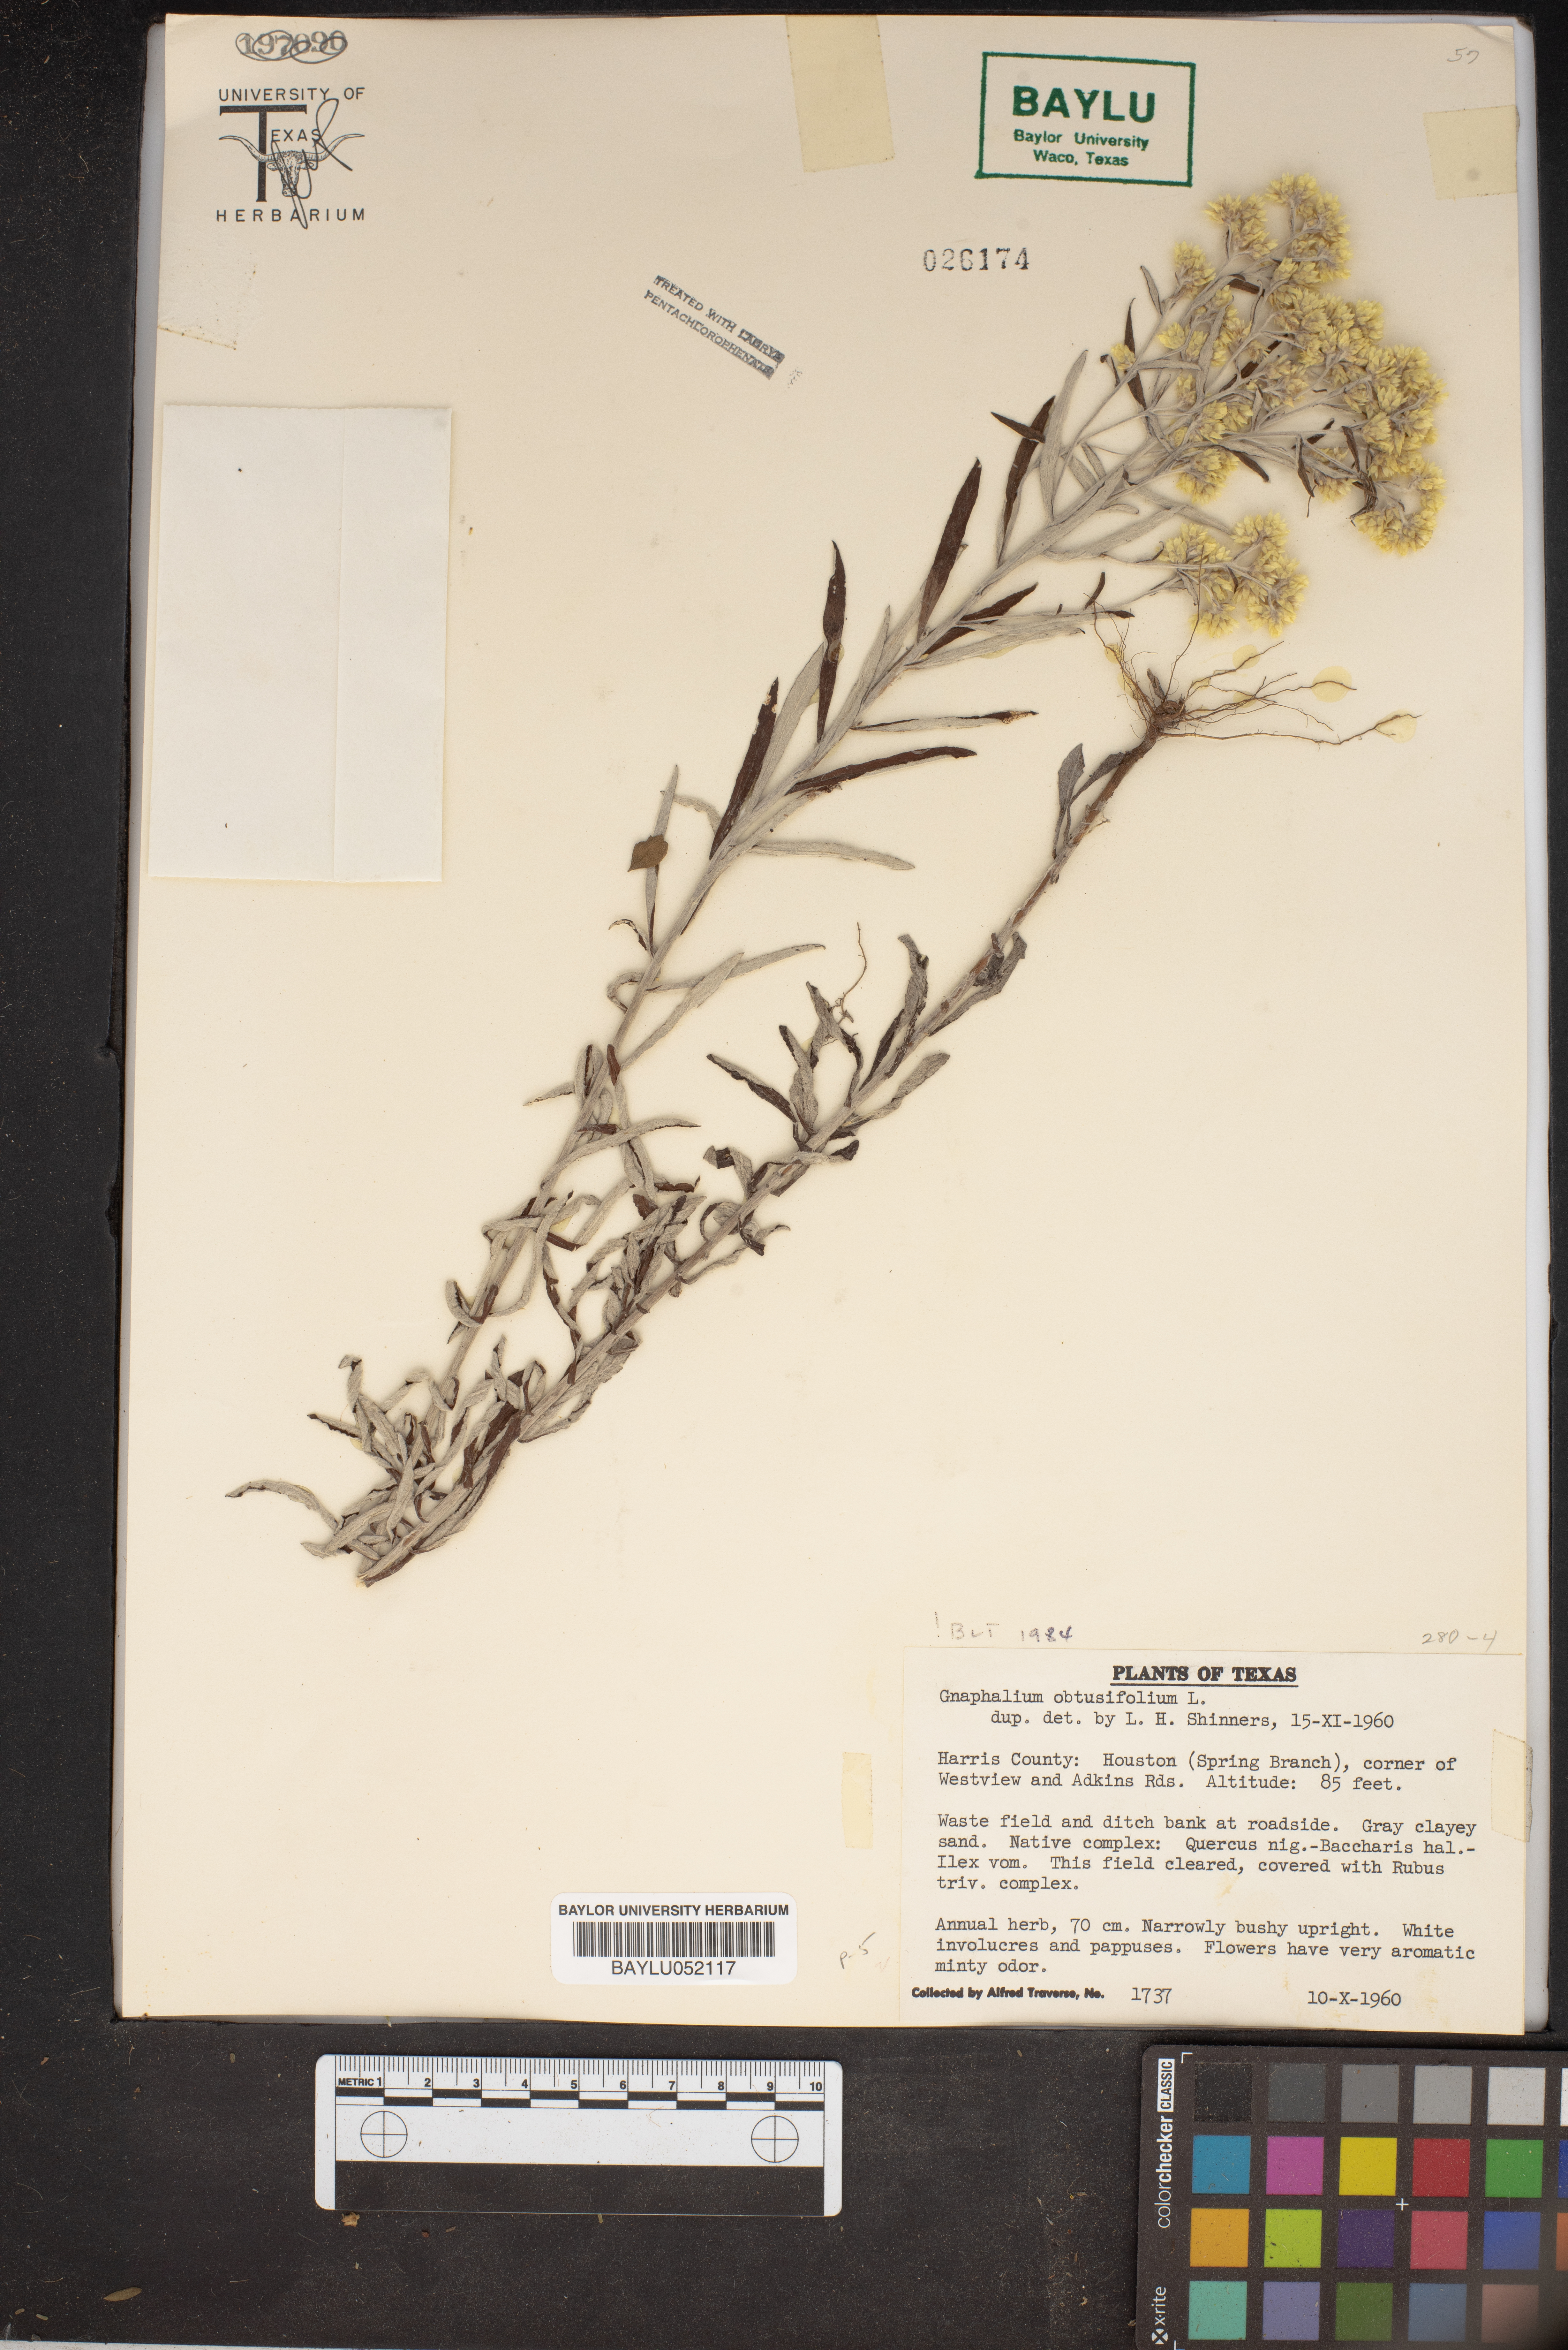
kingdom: Plantae
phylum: Tracheophyta
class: Magnoliopsida
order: Asterales
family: Asteraceae
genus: Pseudognaphalium
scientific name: Pseudognaphalium obtusifolium
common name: Eastern rabbit-tobacco
